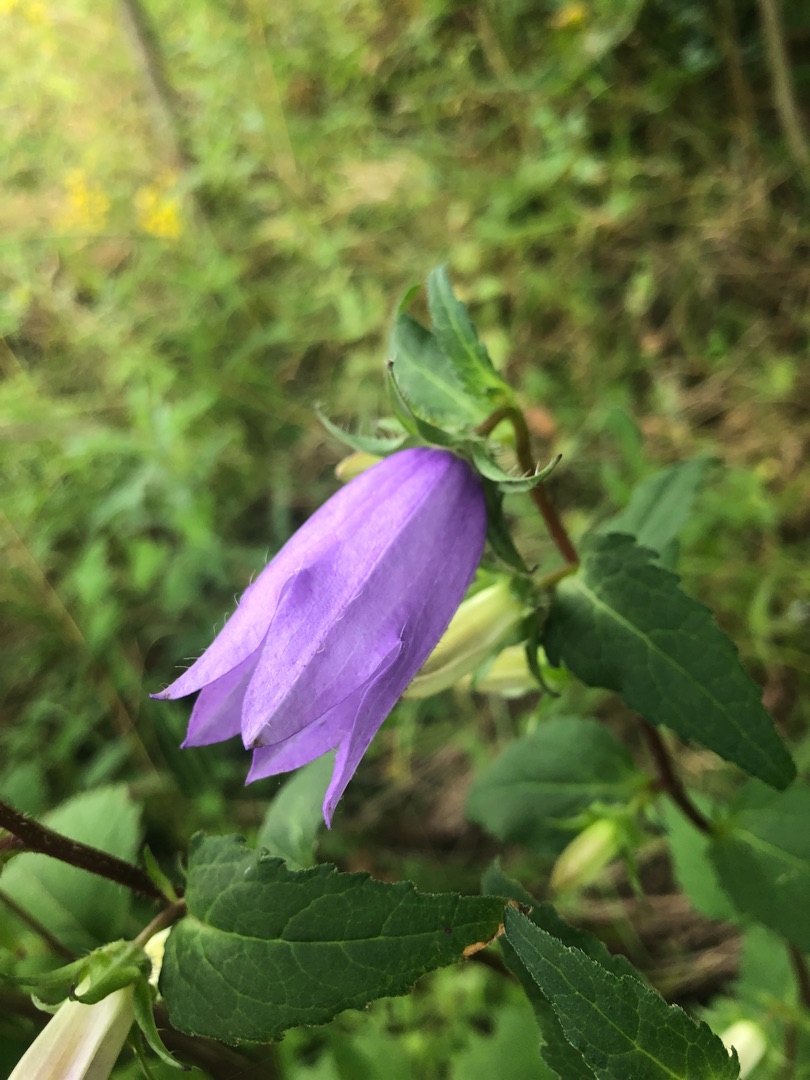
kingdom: Plantae
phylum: Tracheophyta
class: Magnoliopsida
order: Asterales
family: Campanulaceae
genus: Campanula
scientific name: Campanula trachelium
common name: Nælde-klokke
